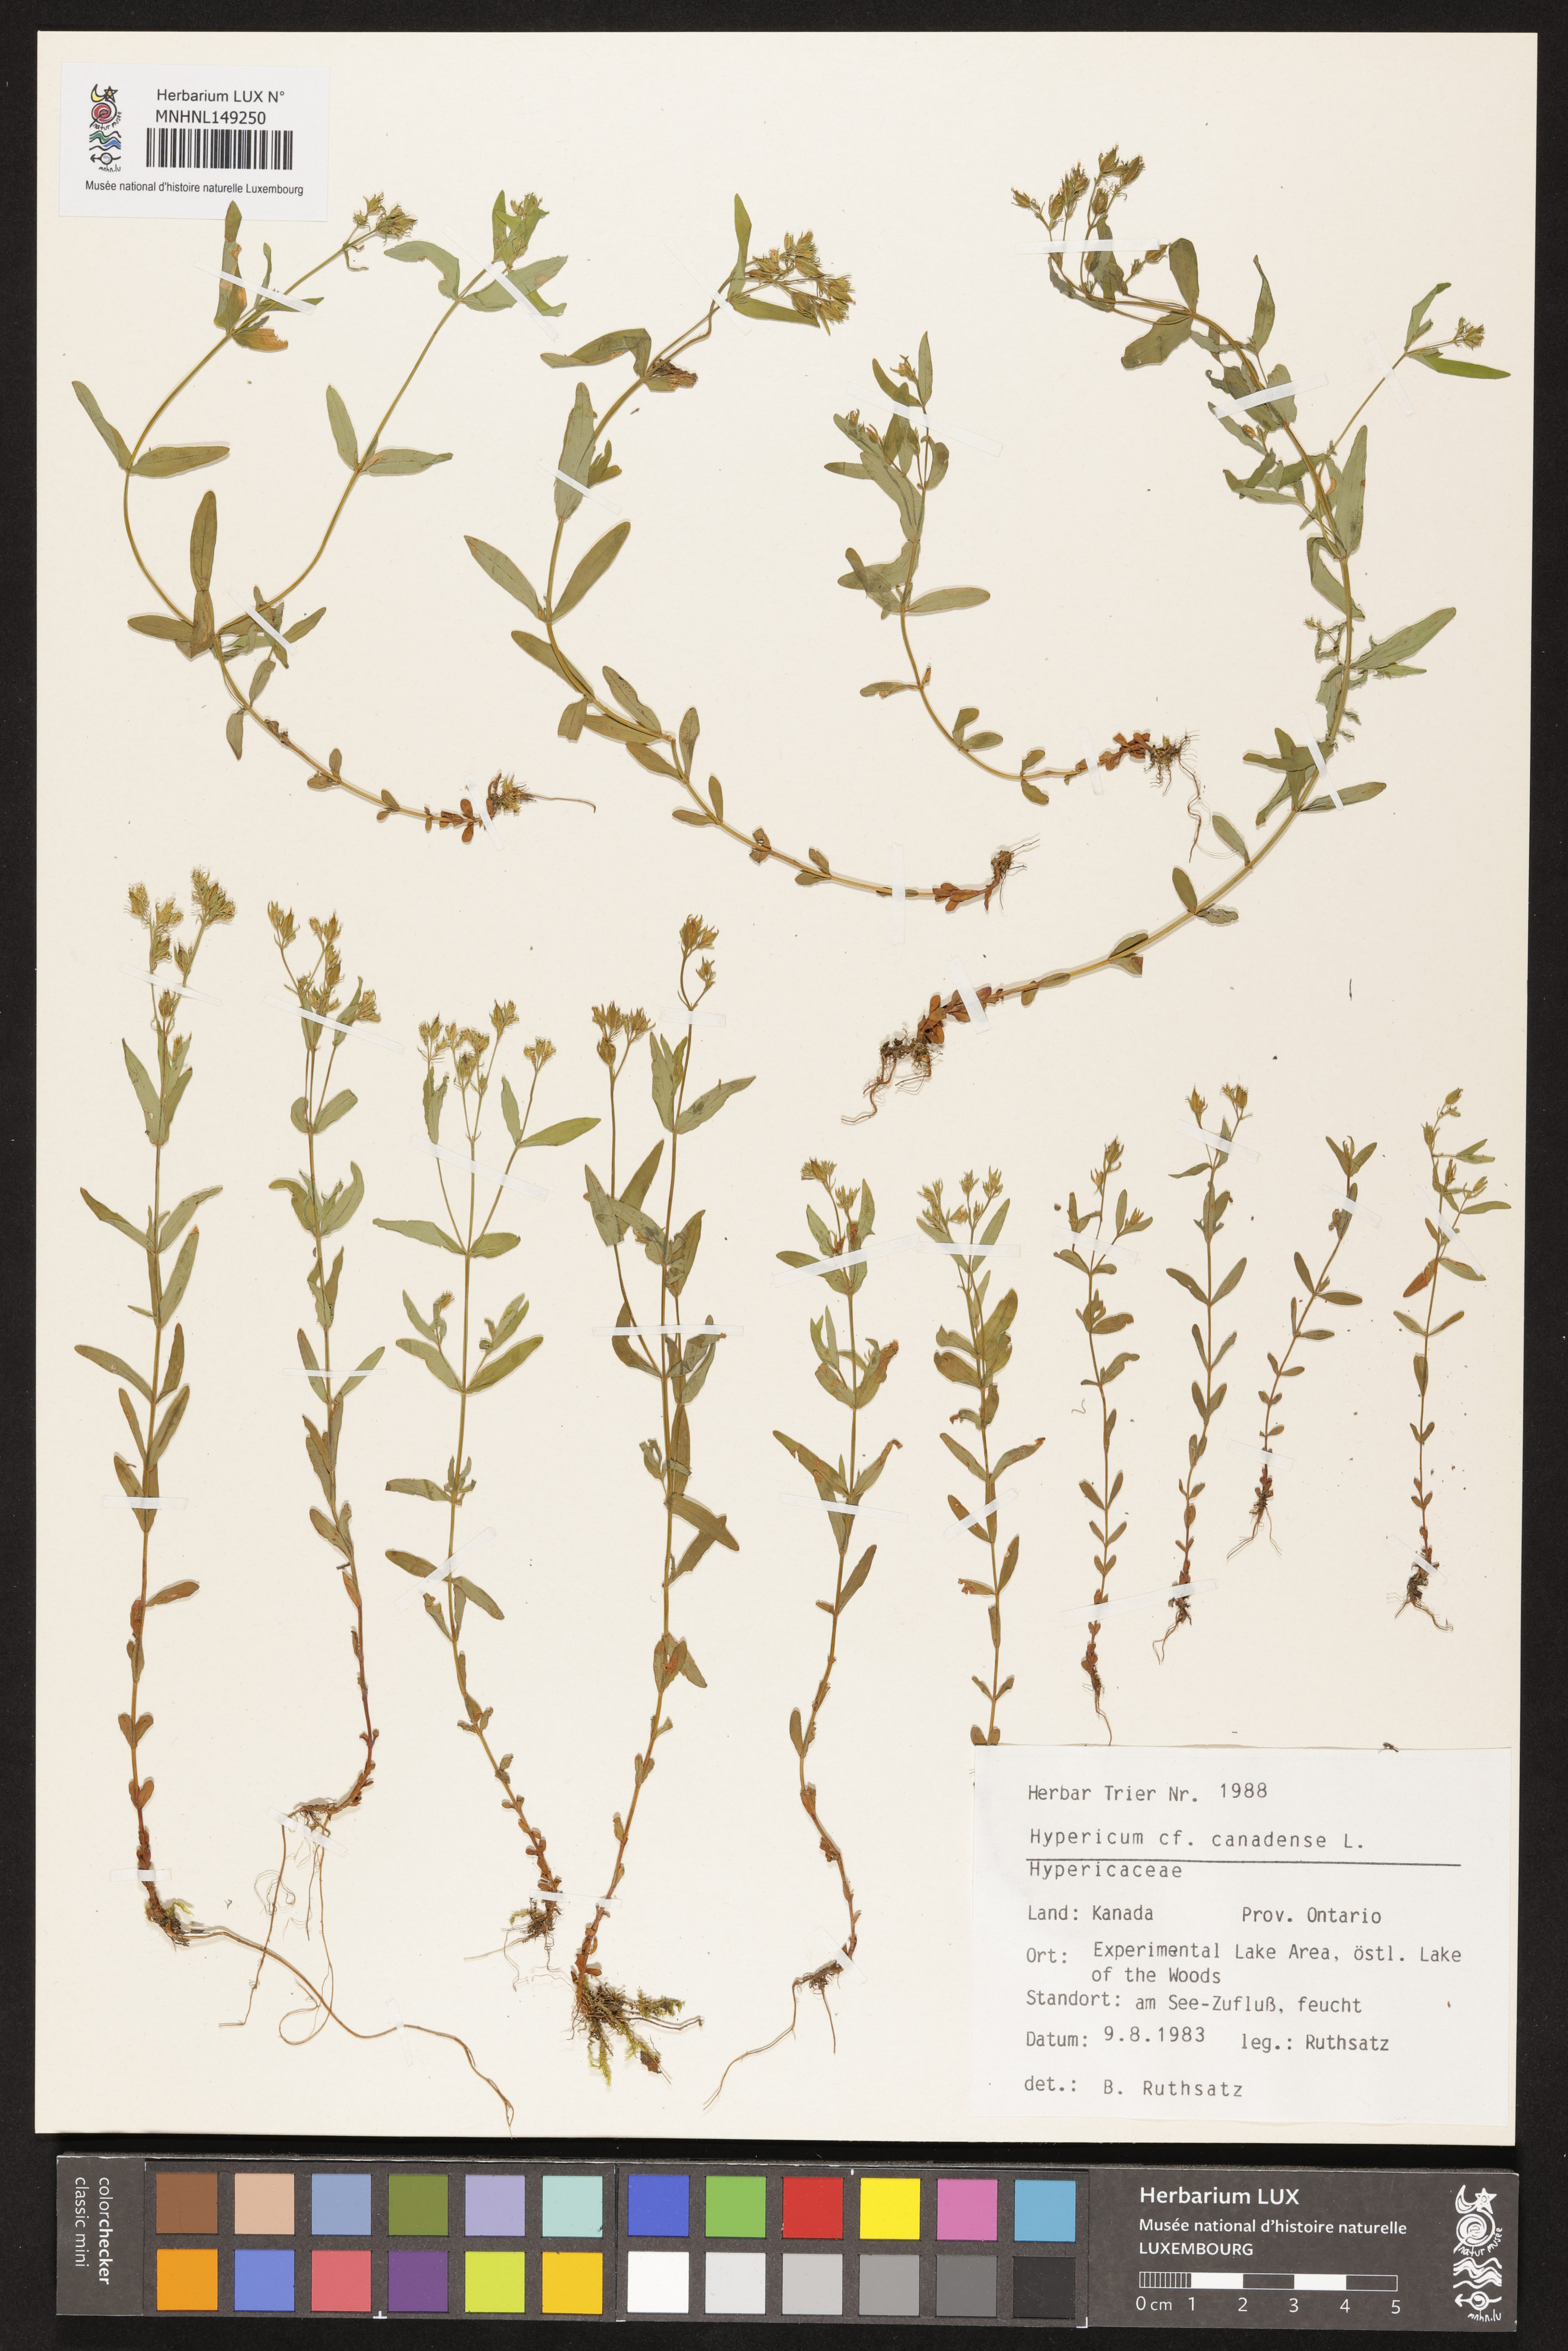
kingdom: Plantae
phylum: Tracheophyta
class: Magnoliopsida
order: Malpighiales
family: Hypericaceae
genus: Hypericum
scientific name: Hypericum canadense
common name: Irish st. john's-wort
